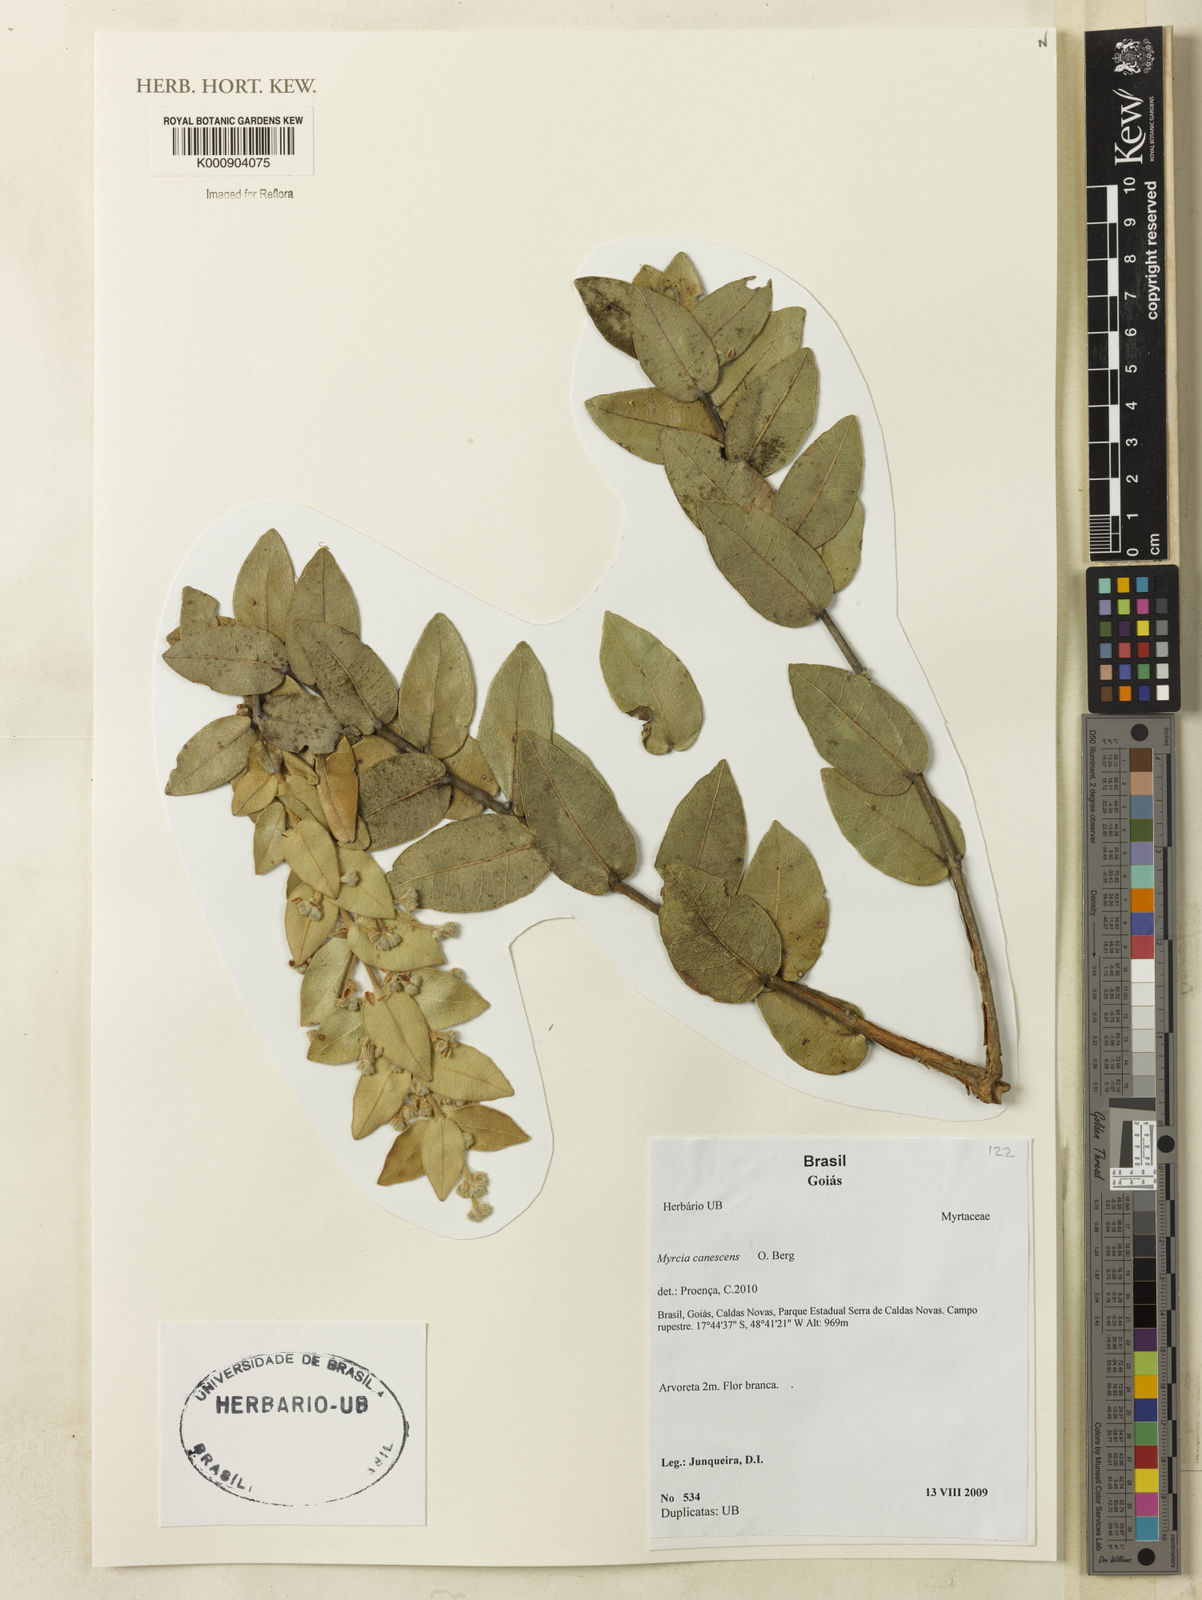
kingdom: Plantae
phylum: Tracheophyta
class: Magnoliopsida
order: Myrtales
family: Myrtaceae
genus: Myrcia
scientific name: Myrcia canescens
